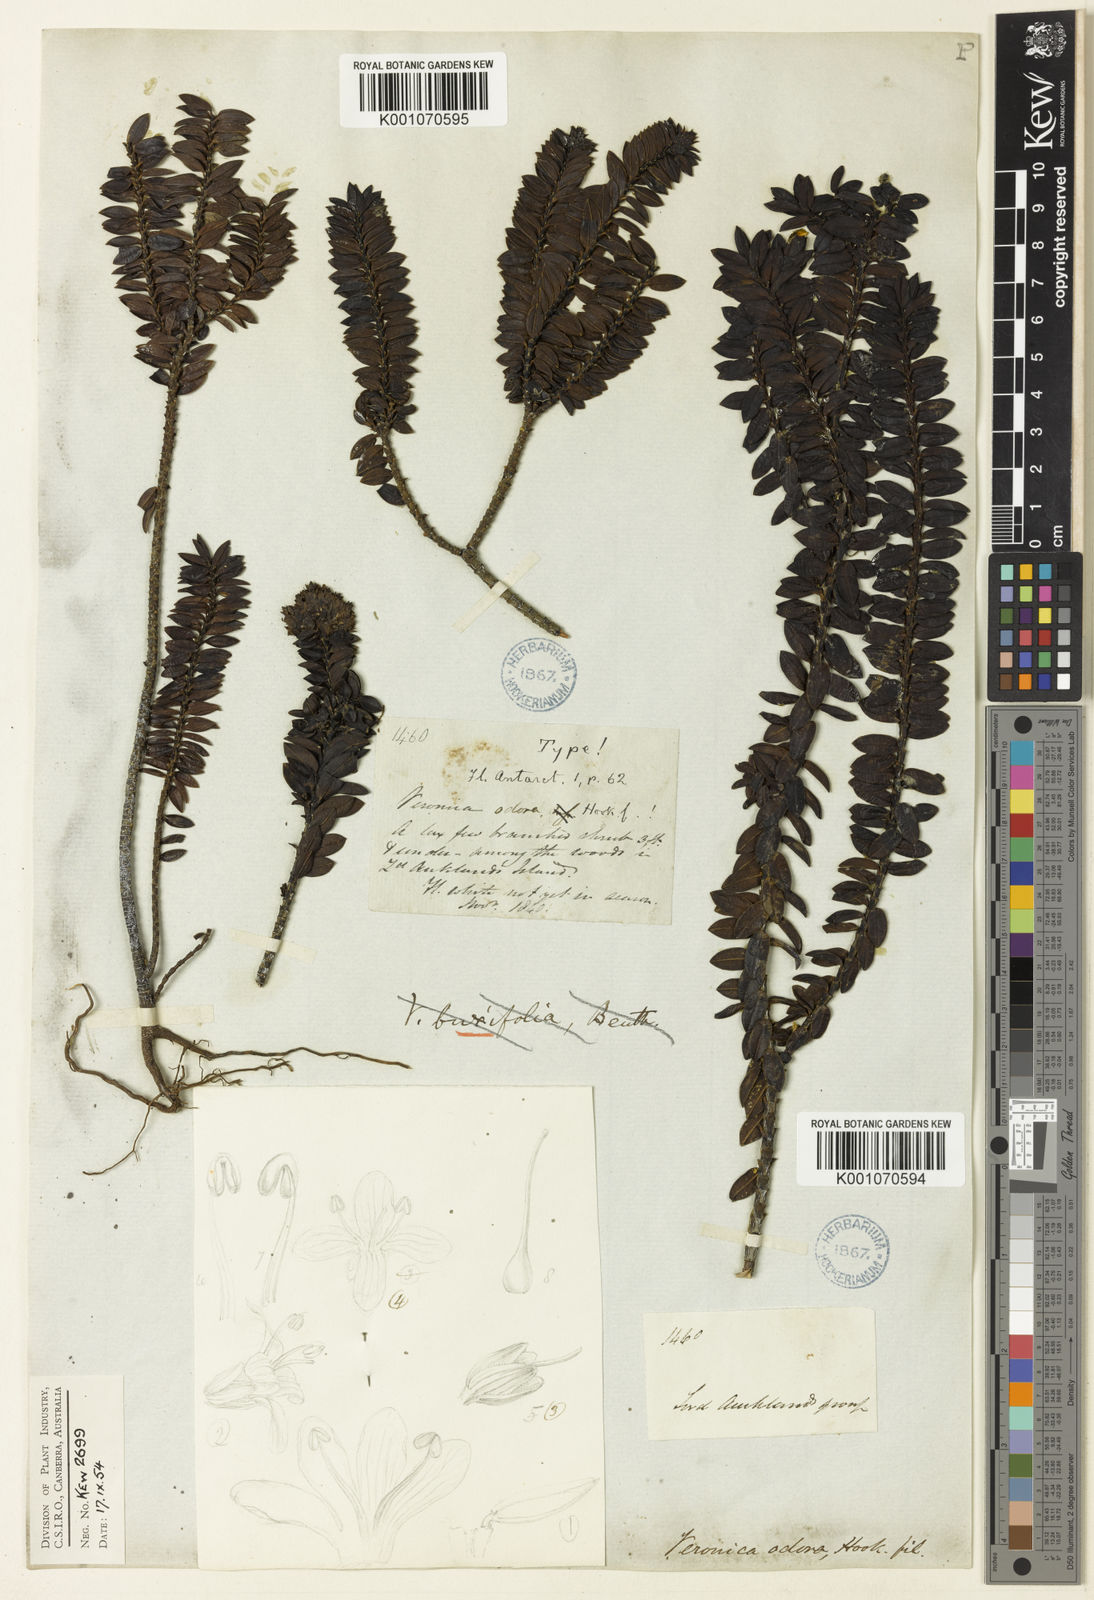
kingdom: Plantae
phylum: Tracheophyta
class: Magnoliopsida
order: Lamiales
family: Plantaginaceae
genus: Veronica
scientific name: Veronica odora
